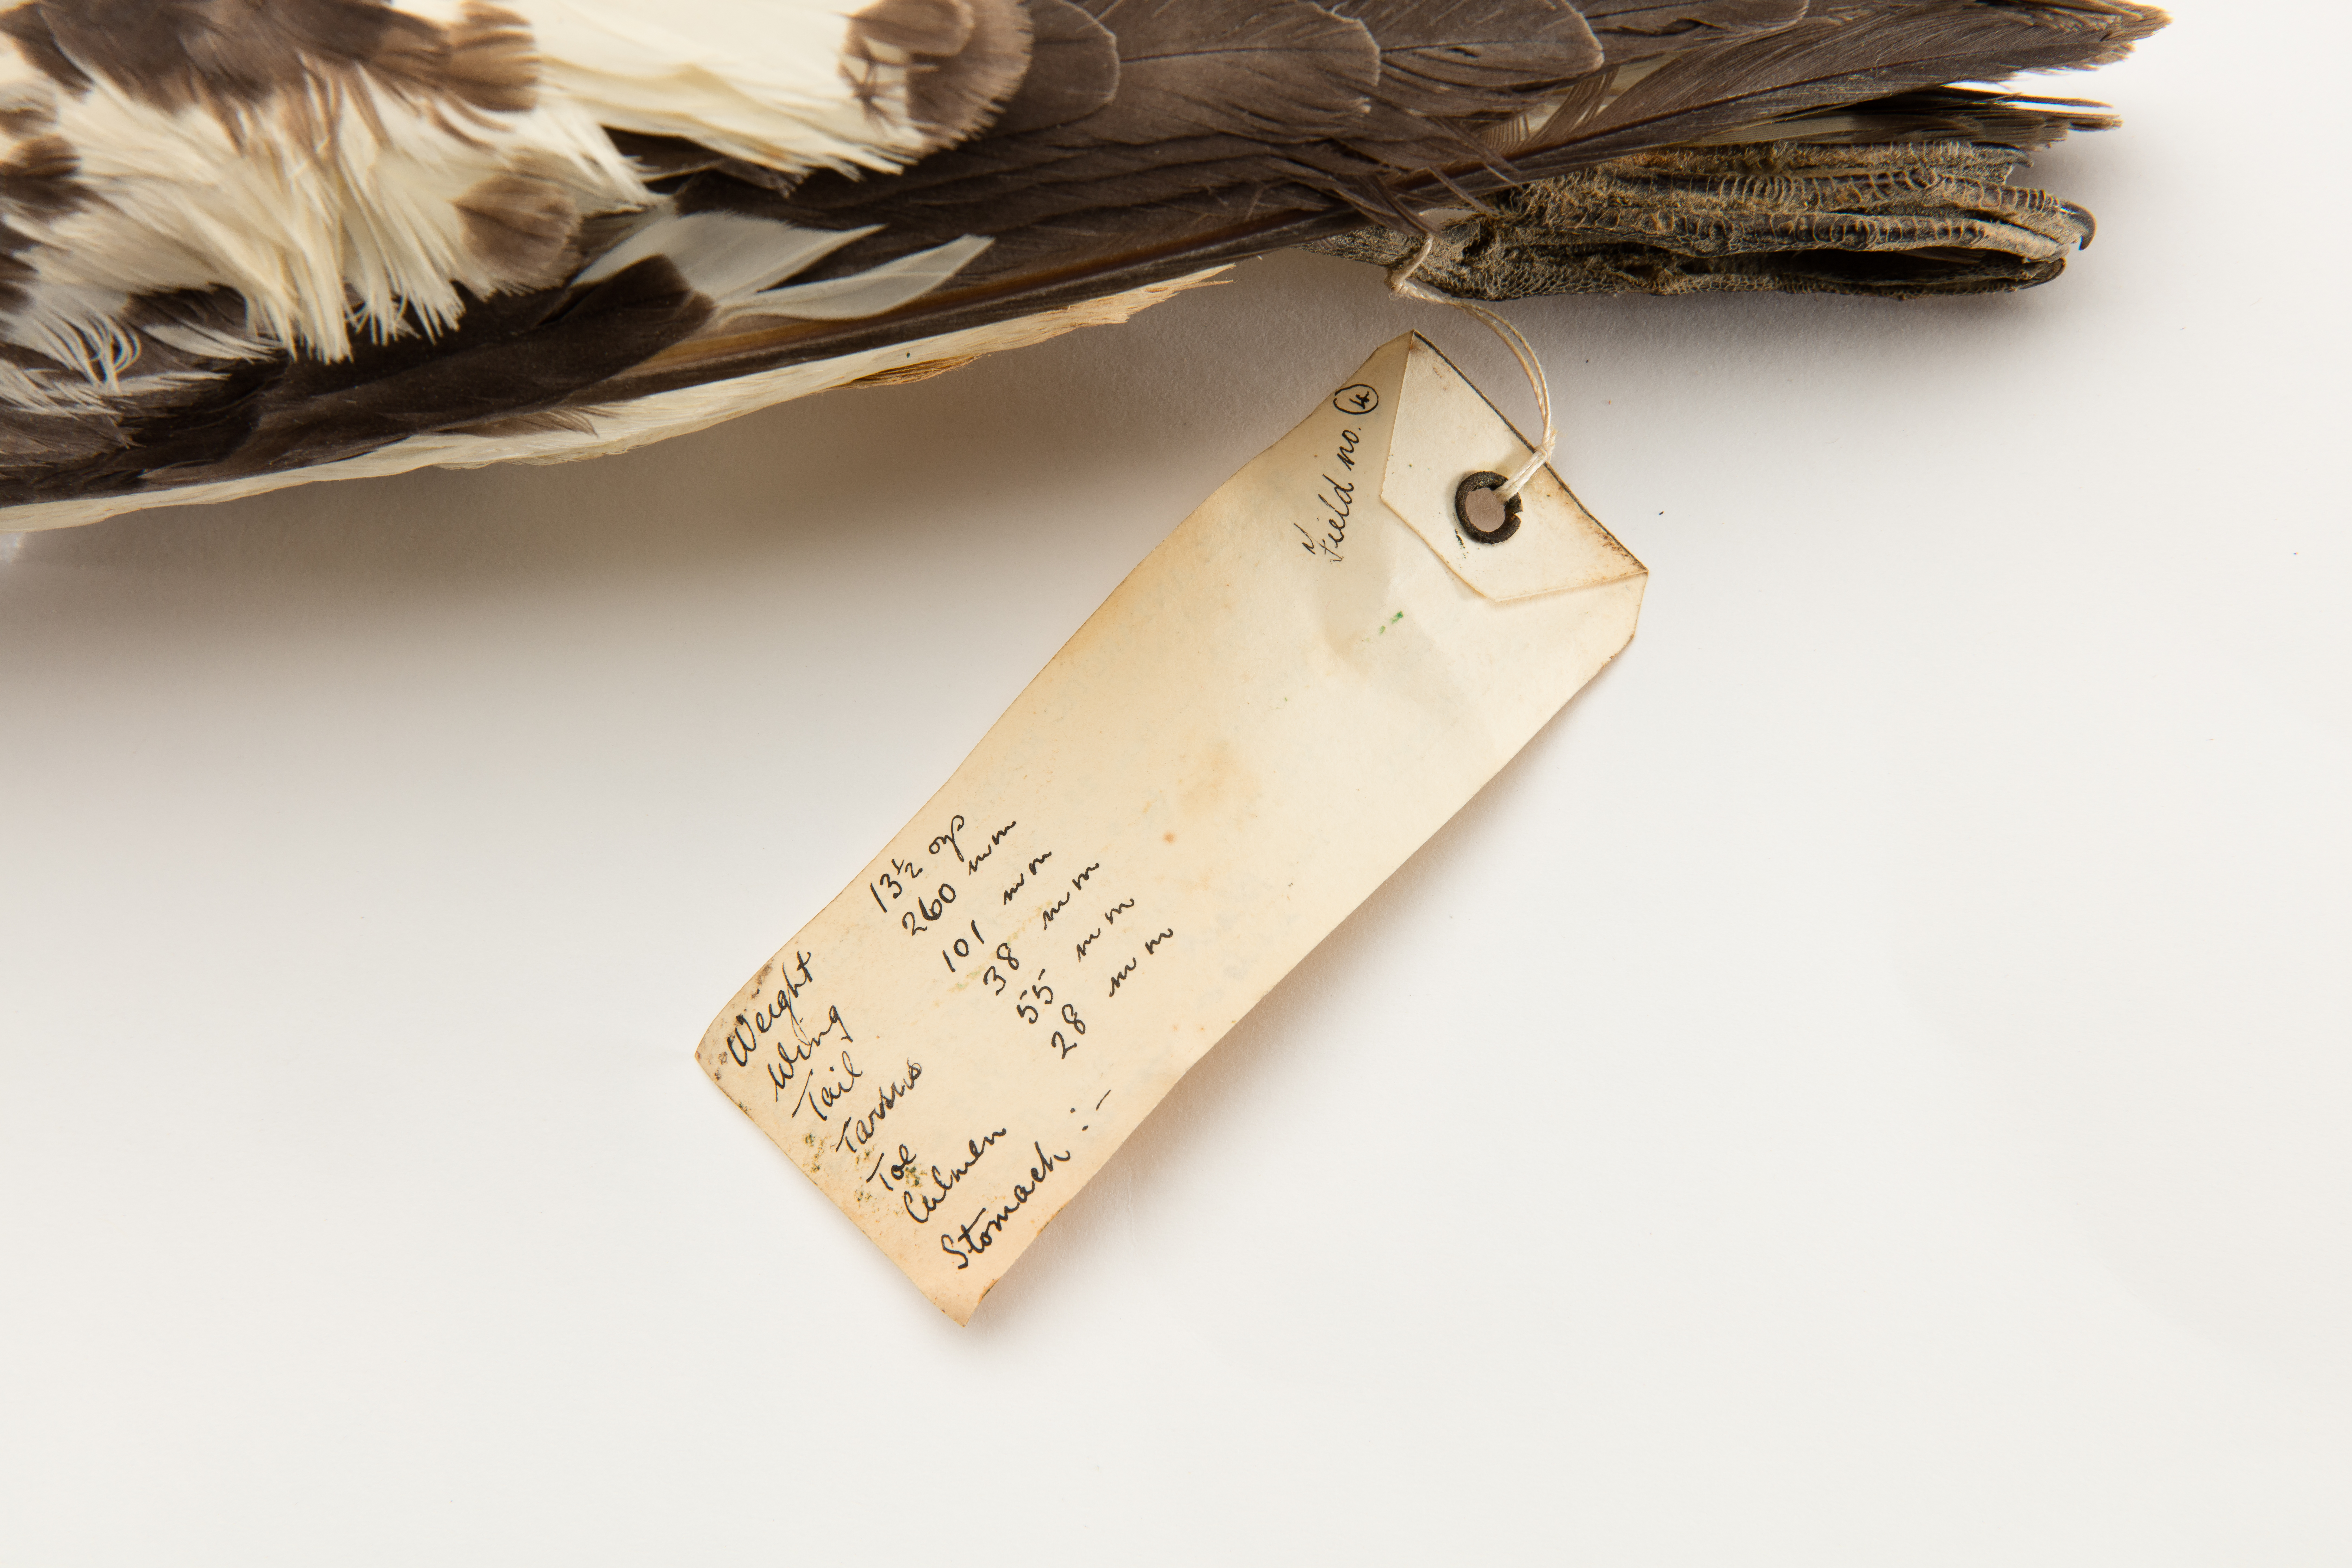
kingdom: Animalia
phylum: Chordata
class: Aves
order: Procellariiformes
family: Procellariidae
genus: Daption
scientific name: Daption capense
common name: Cape petrel
